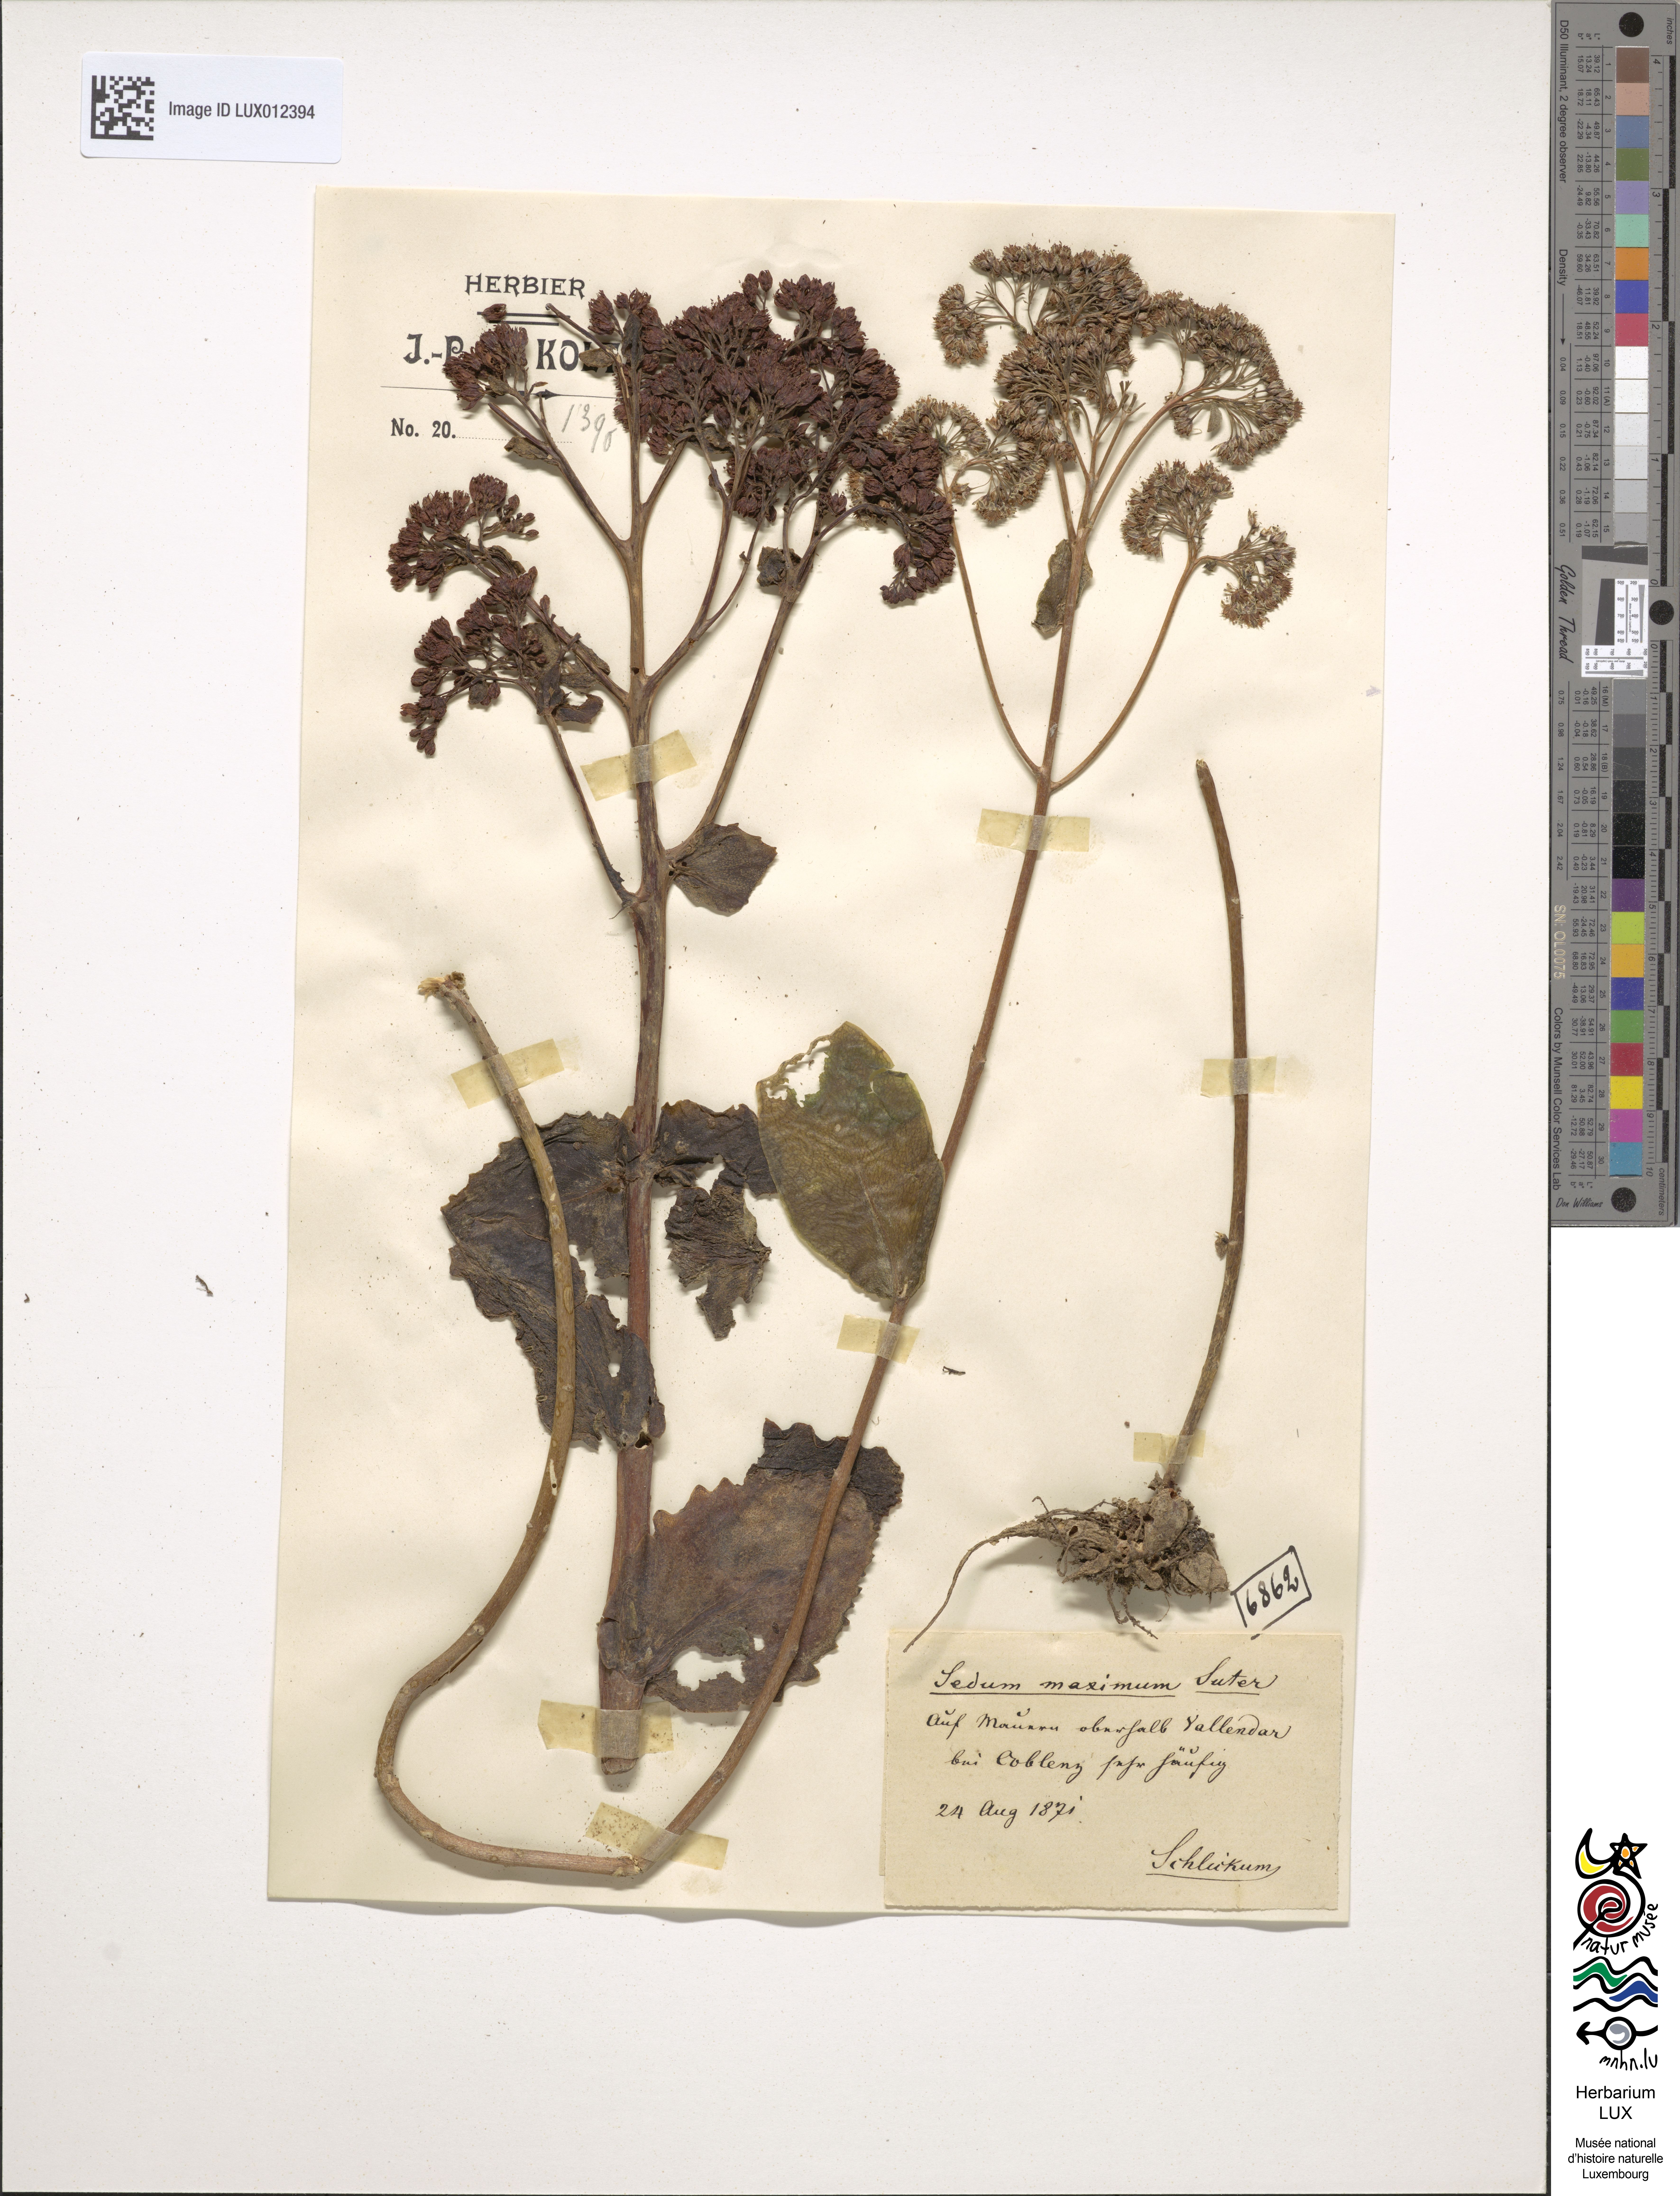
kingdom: Plantae
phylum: Tracheophyta
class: Magnoliopsida
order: Saxifragales
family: Crassulaceae
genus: Hylotelephium
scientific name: Hylotelephium maximum
